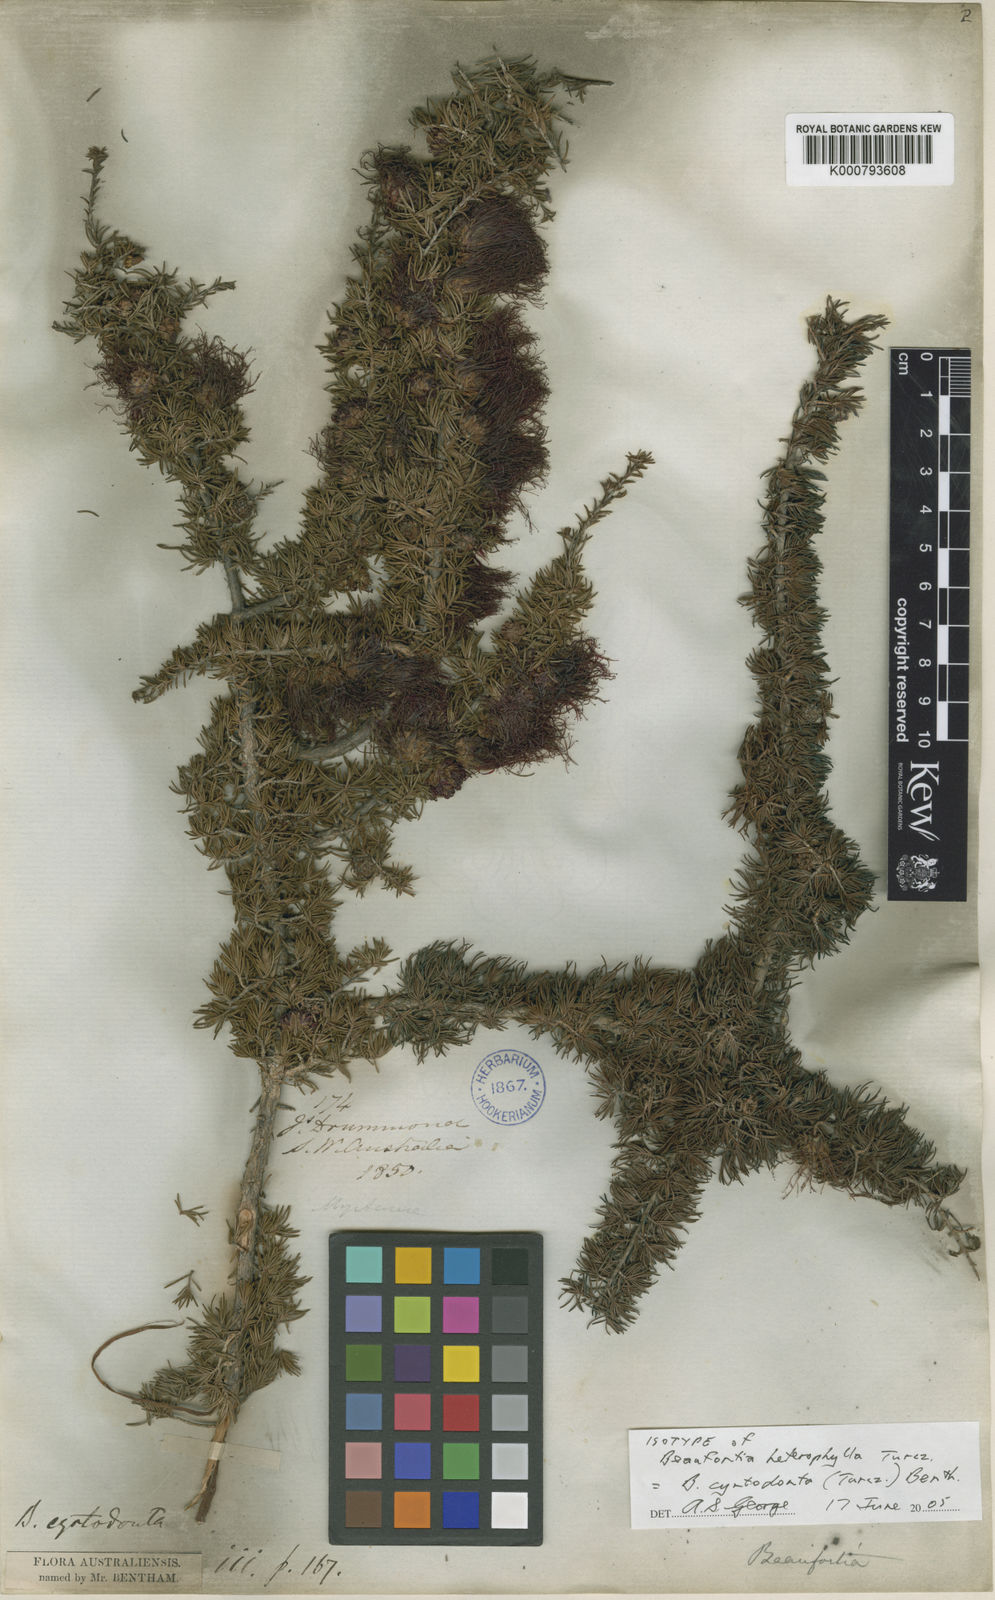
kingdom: Plantae
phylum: Tracheophyta
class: Magnoliopsida
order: Myrtales
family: Myrtaceae
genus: Melaleuca
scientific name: Melaleuca cyrtodonta
